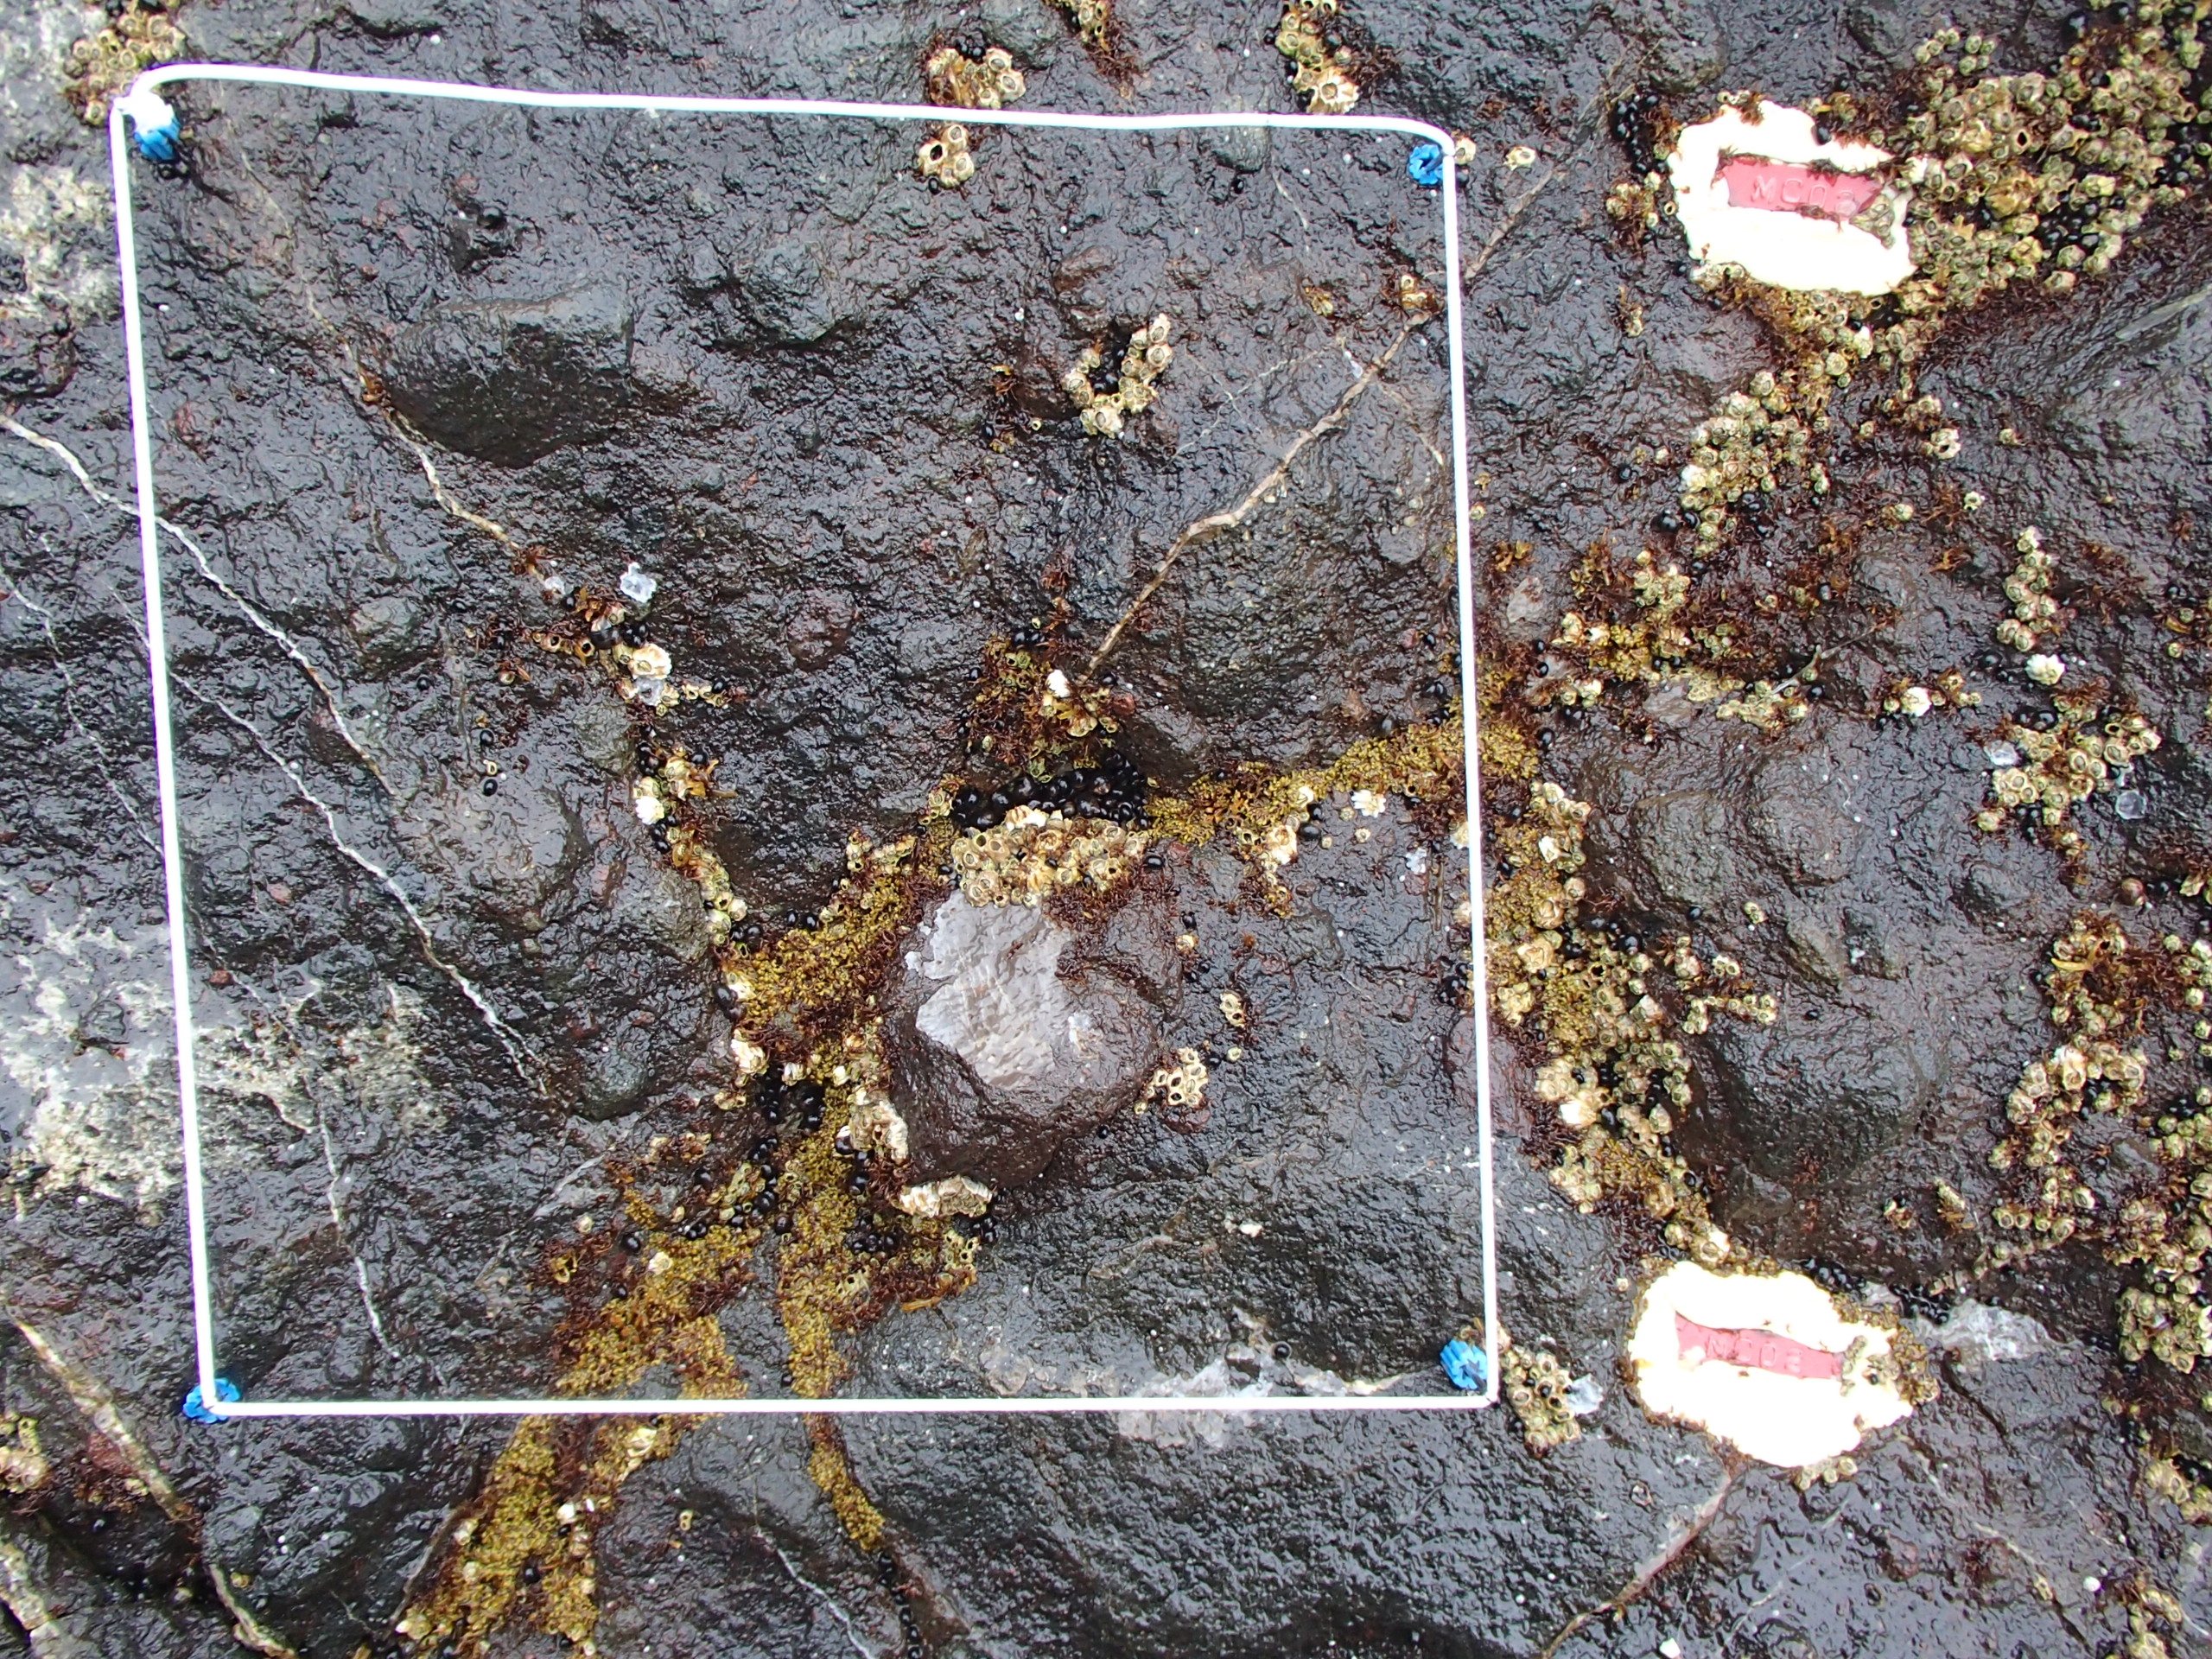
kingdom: Chromista
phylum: Ochrophyta
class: Phaeophyceae
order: Scytosiphonales
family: Scytosiphonaceae
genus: Analipus
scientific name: Analipus japonicus
